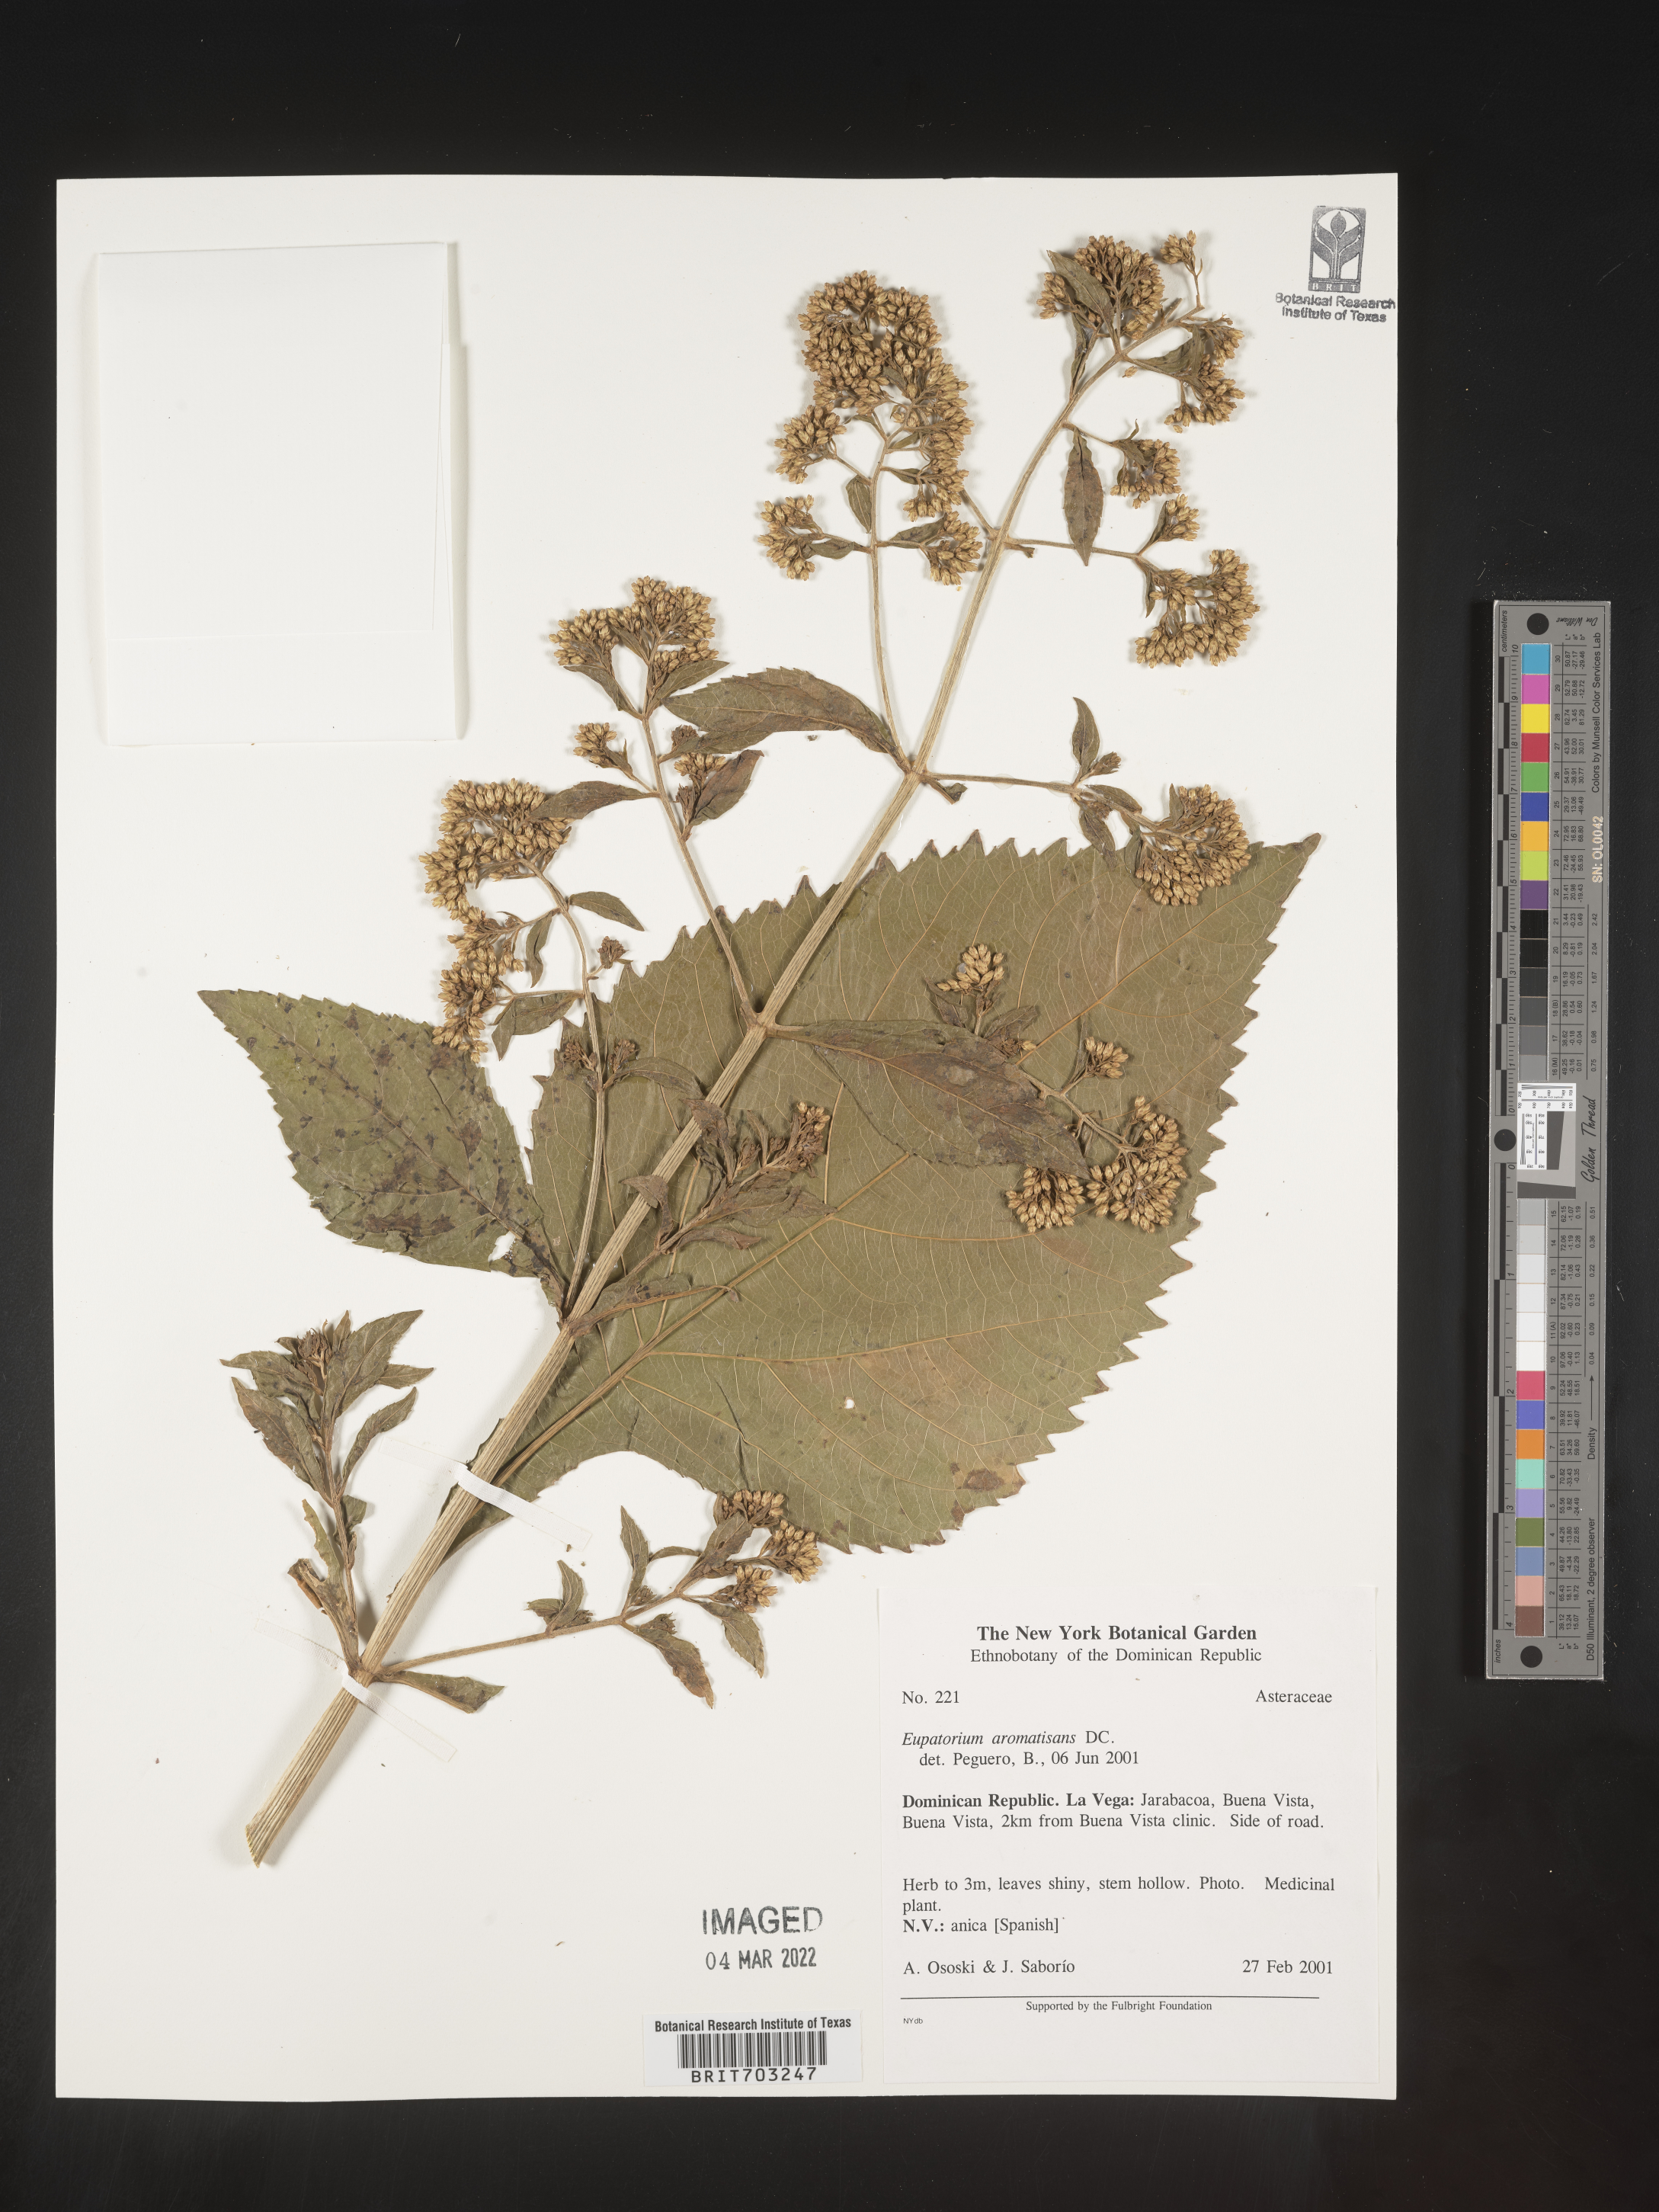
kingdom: Plantae
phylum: Tracheophyta
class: Magnoliopsida
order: Asterales
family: Asteraceae
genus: Eupatorium
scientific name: Eupatorium
